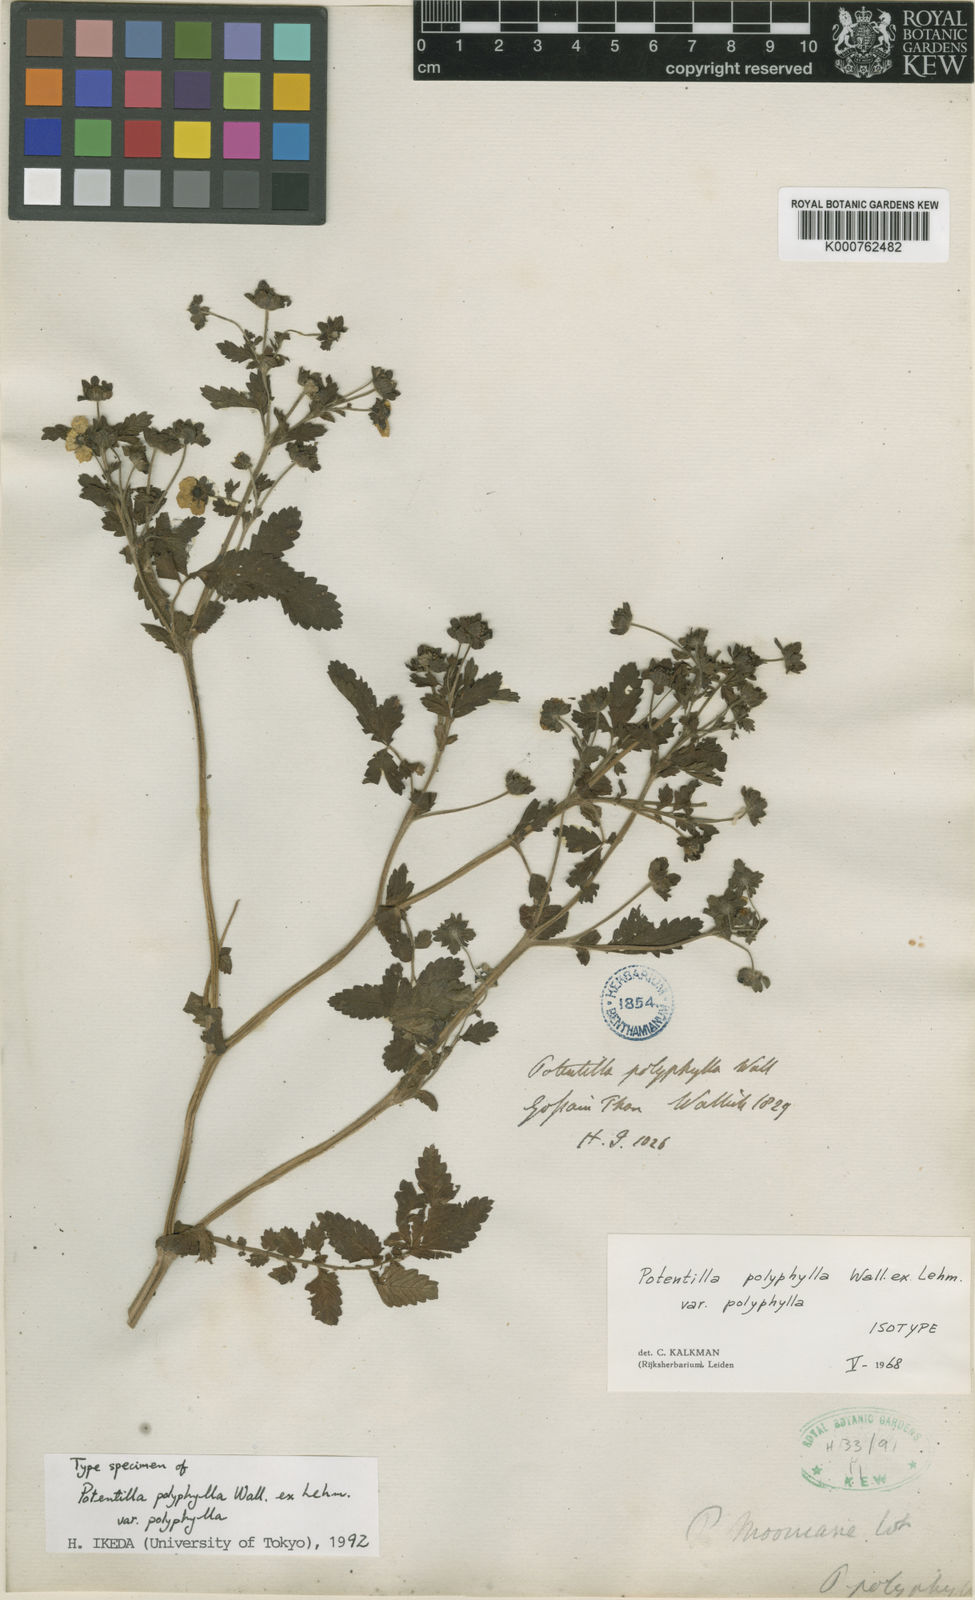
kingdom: Plantae
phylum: Tracheophyta
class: Magnoliopsida
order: Rosales
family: Rosaceae
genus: Argentina
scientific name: Argentina polyphylla
